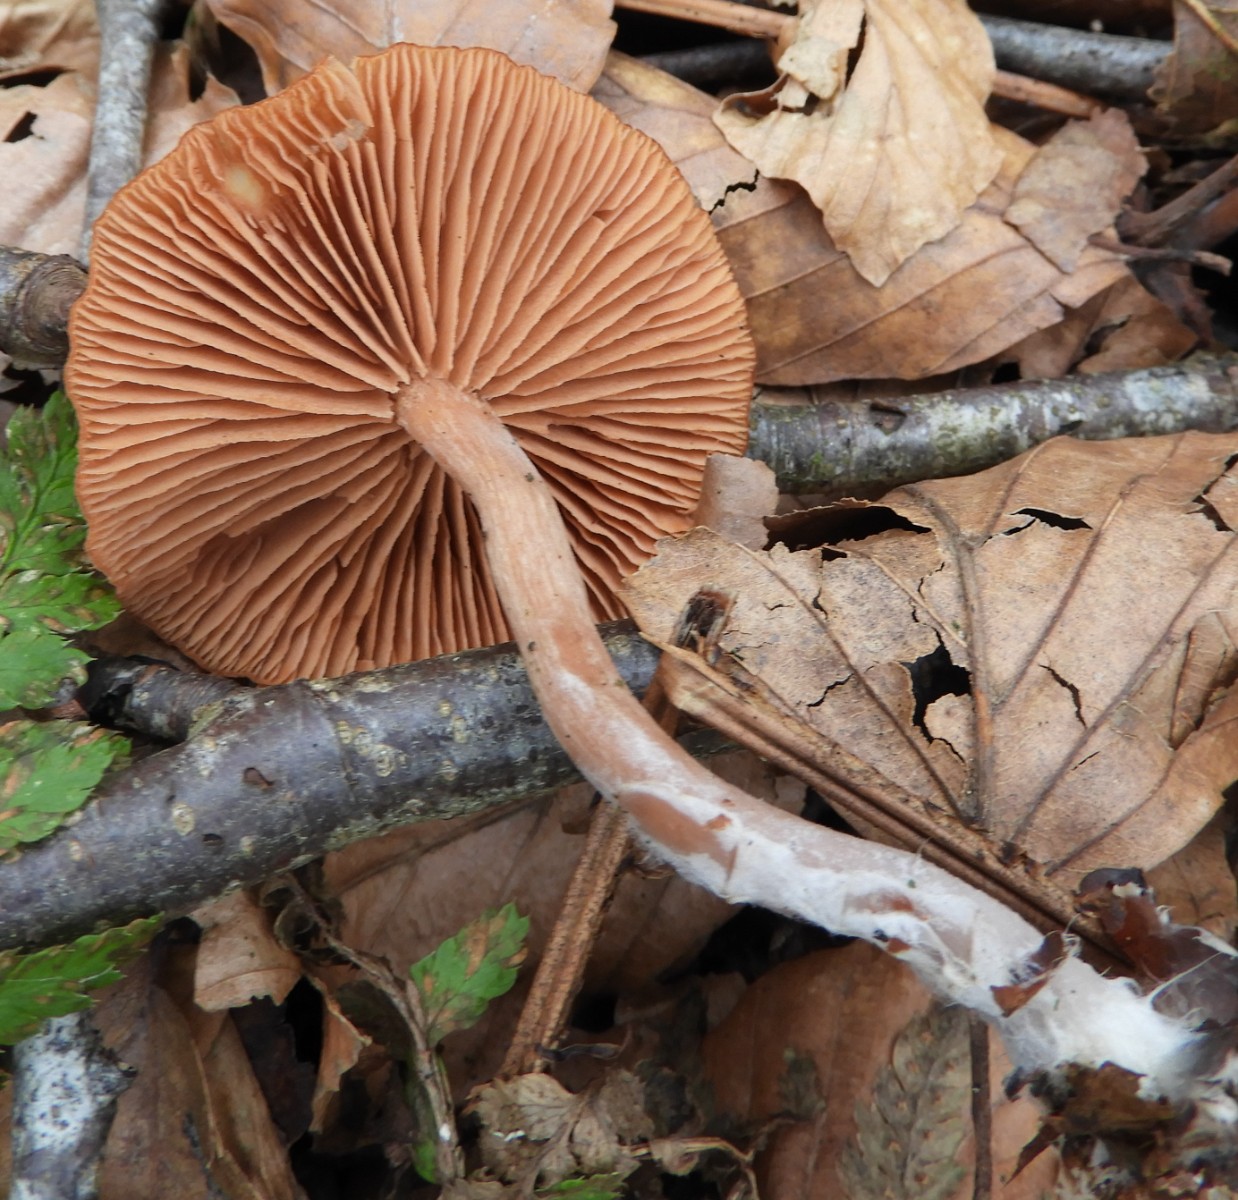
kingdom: Fungi
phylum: Basidiomycota
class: Agaricomycetes
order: Agaricales
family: Tubariaceae
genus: Tubaria
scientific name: Tubaria furfuracea
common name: kliddet fnughat
